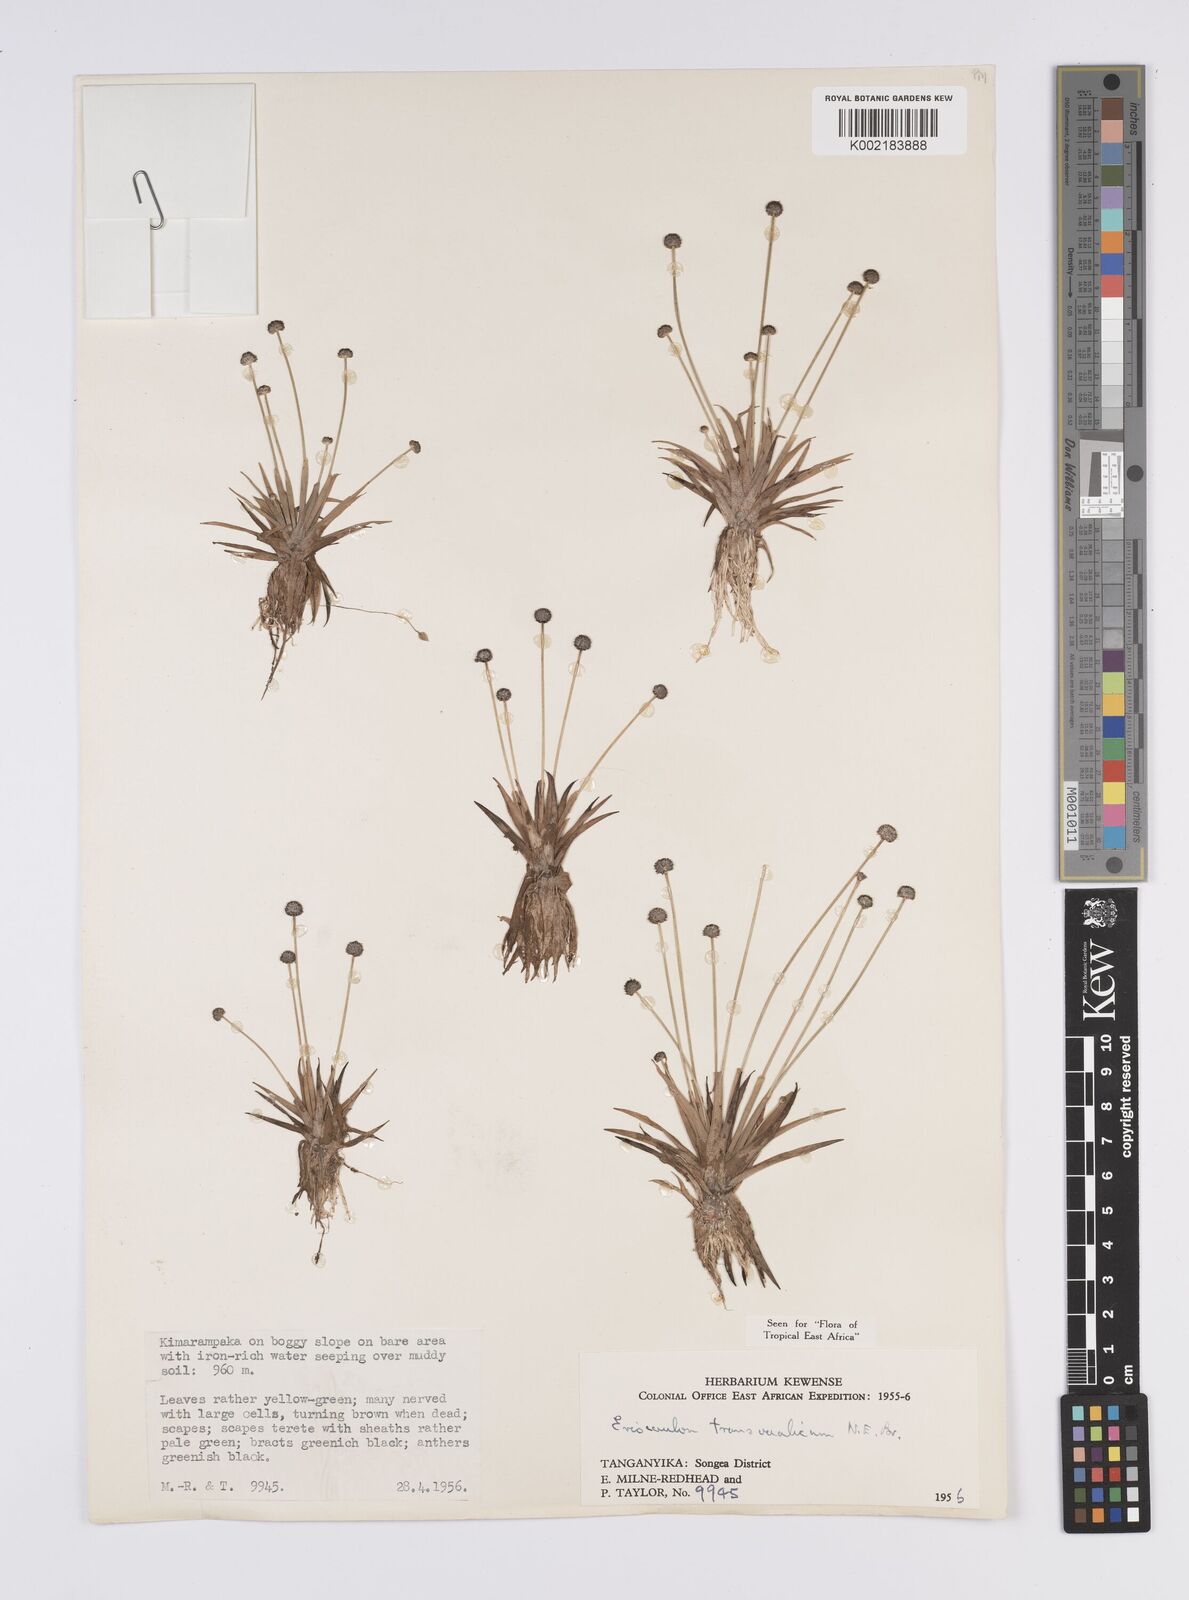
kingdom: Plantae
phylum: Tracheophyta
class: Liliopsida
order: Poales
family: Eriocaulaceae
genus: Eriocaulon
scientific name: Eriocaulon transvaalicum
